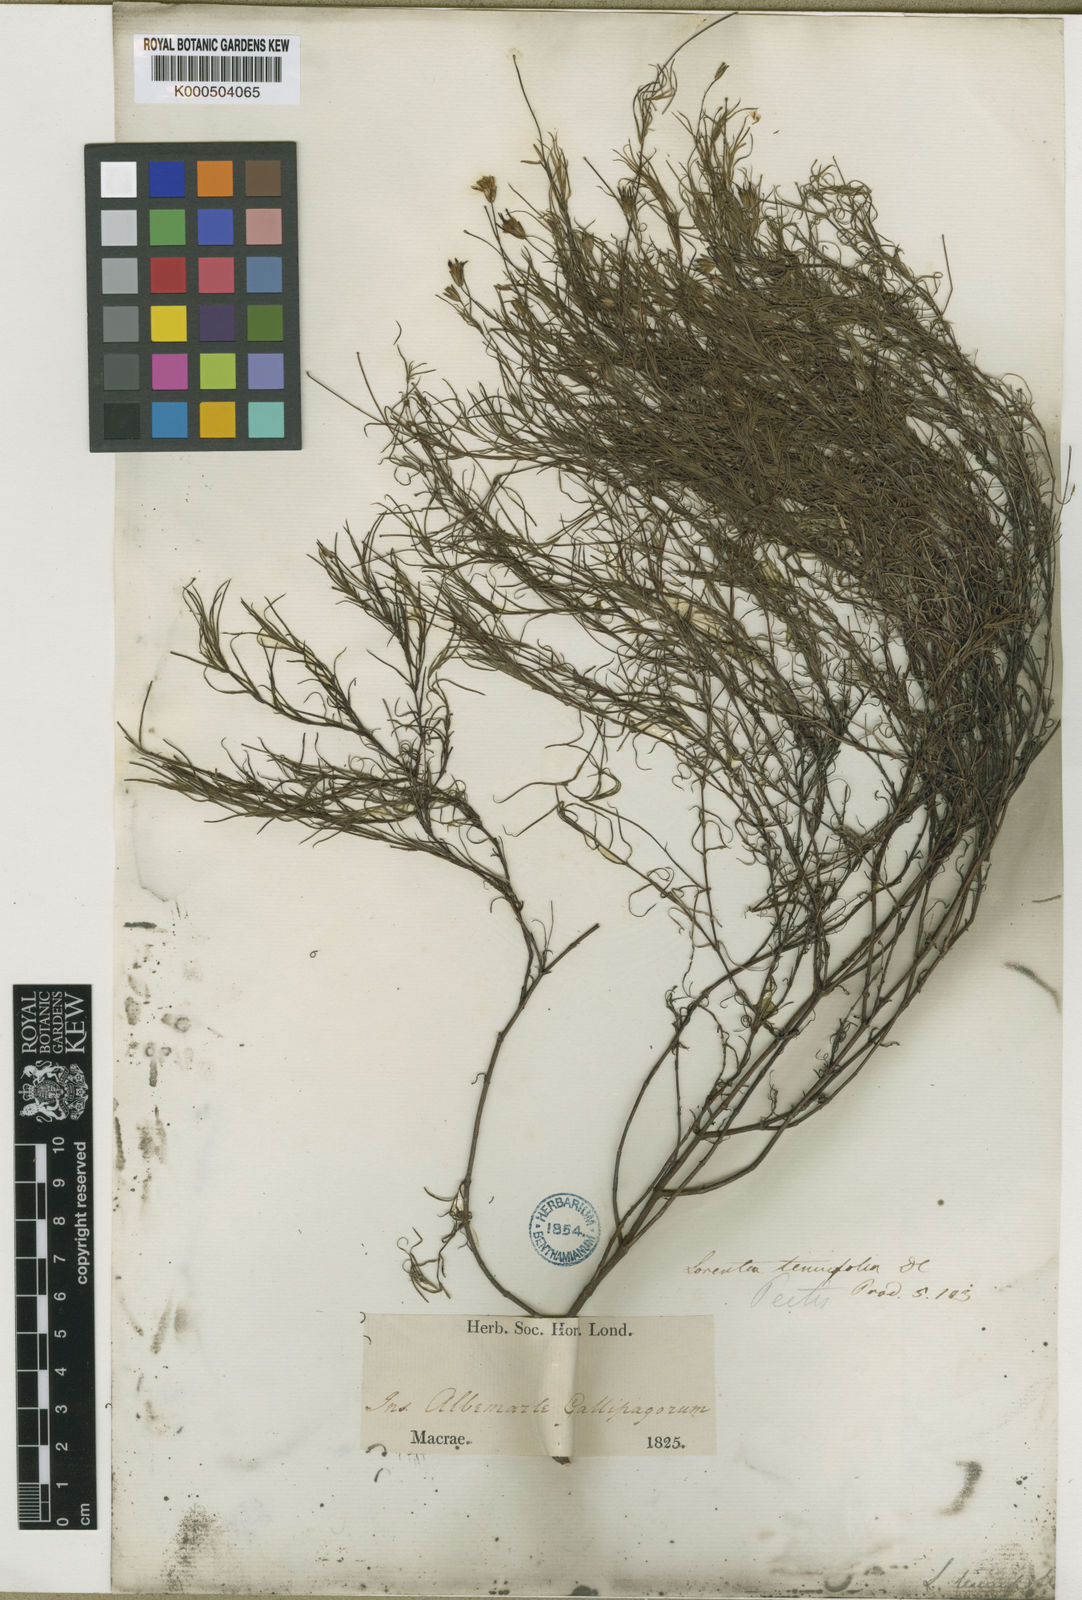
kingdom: Plantae
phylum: Tracheophyta
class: Magnoliopsida
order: Asterales
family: Asteraceae
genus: Pectis
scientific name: Pectis tenuifolia
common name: Oily pectis
